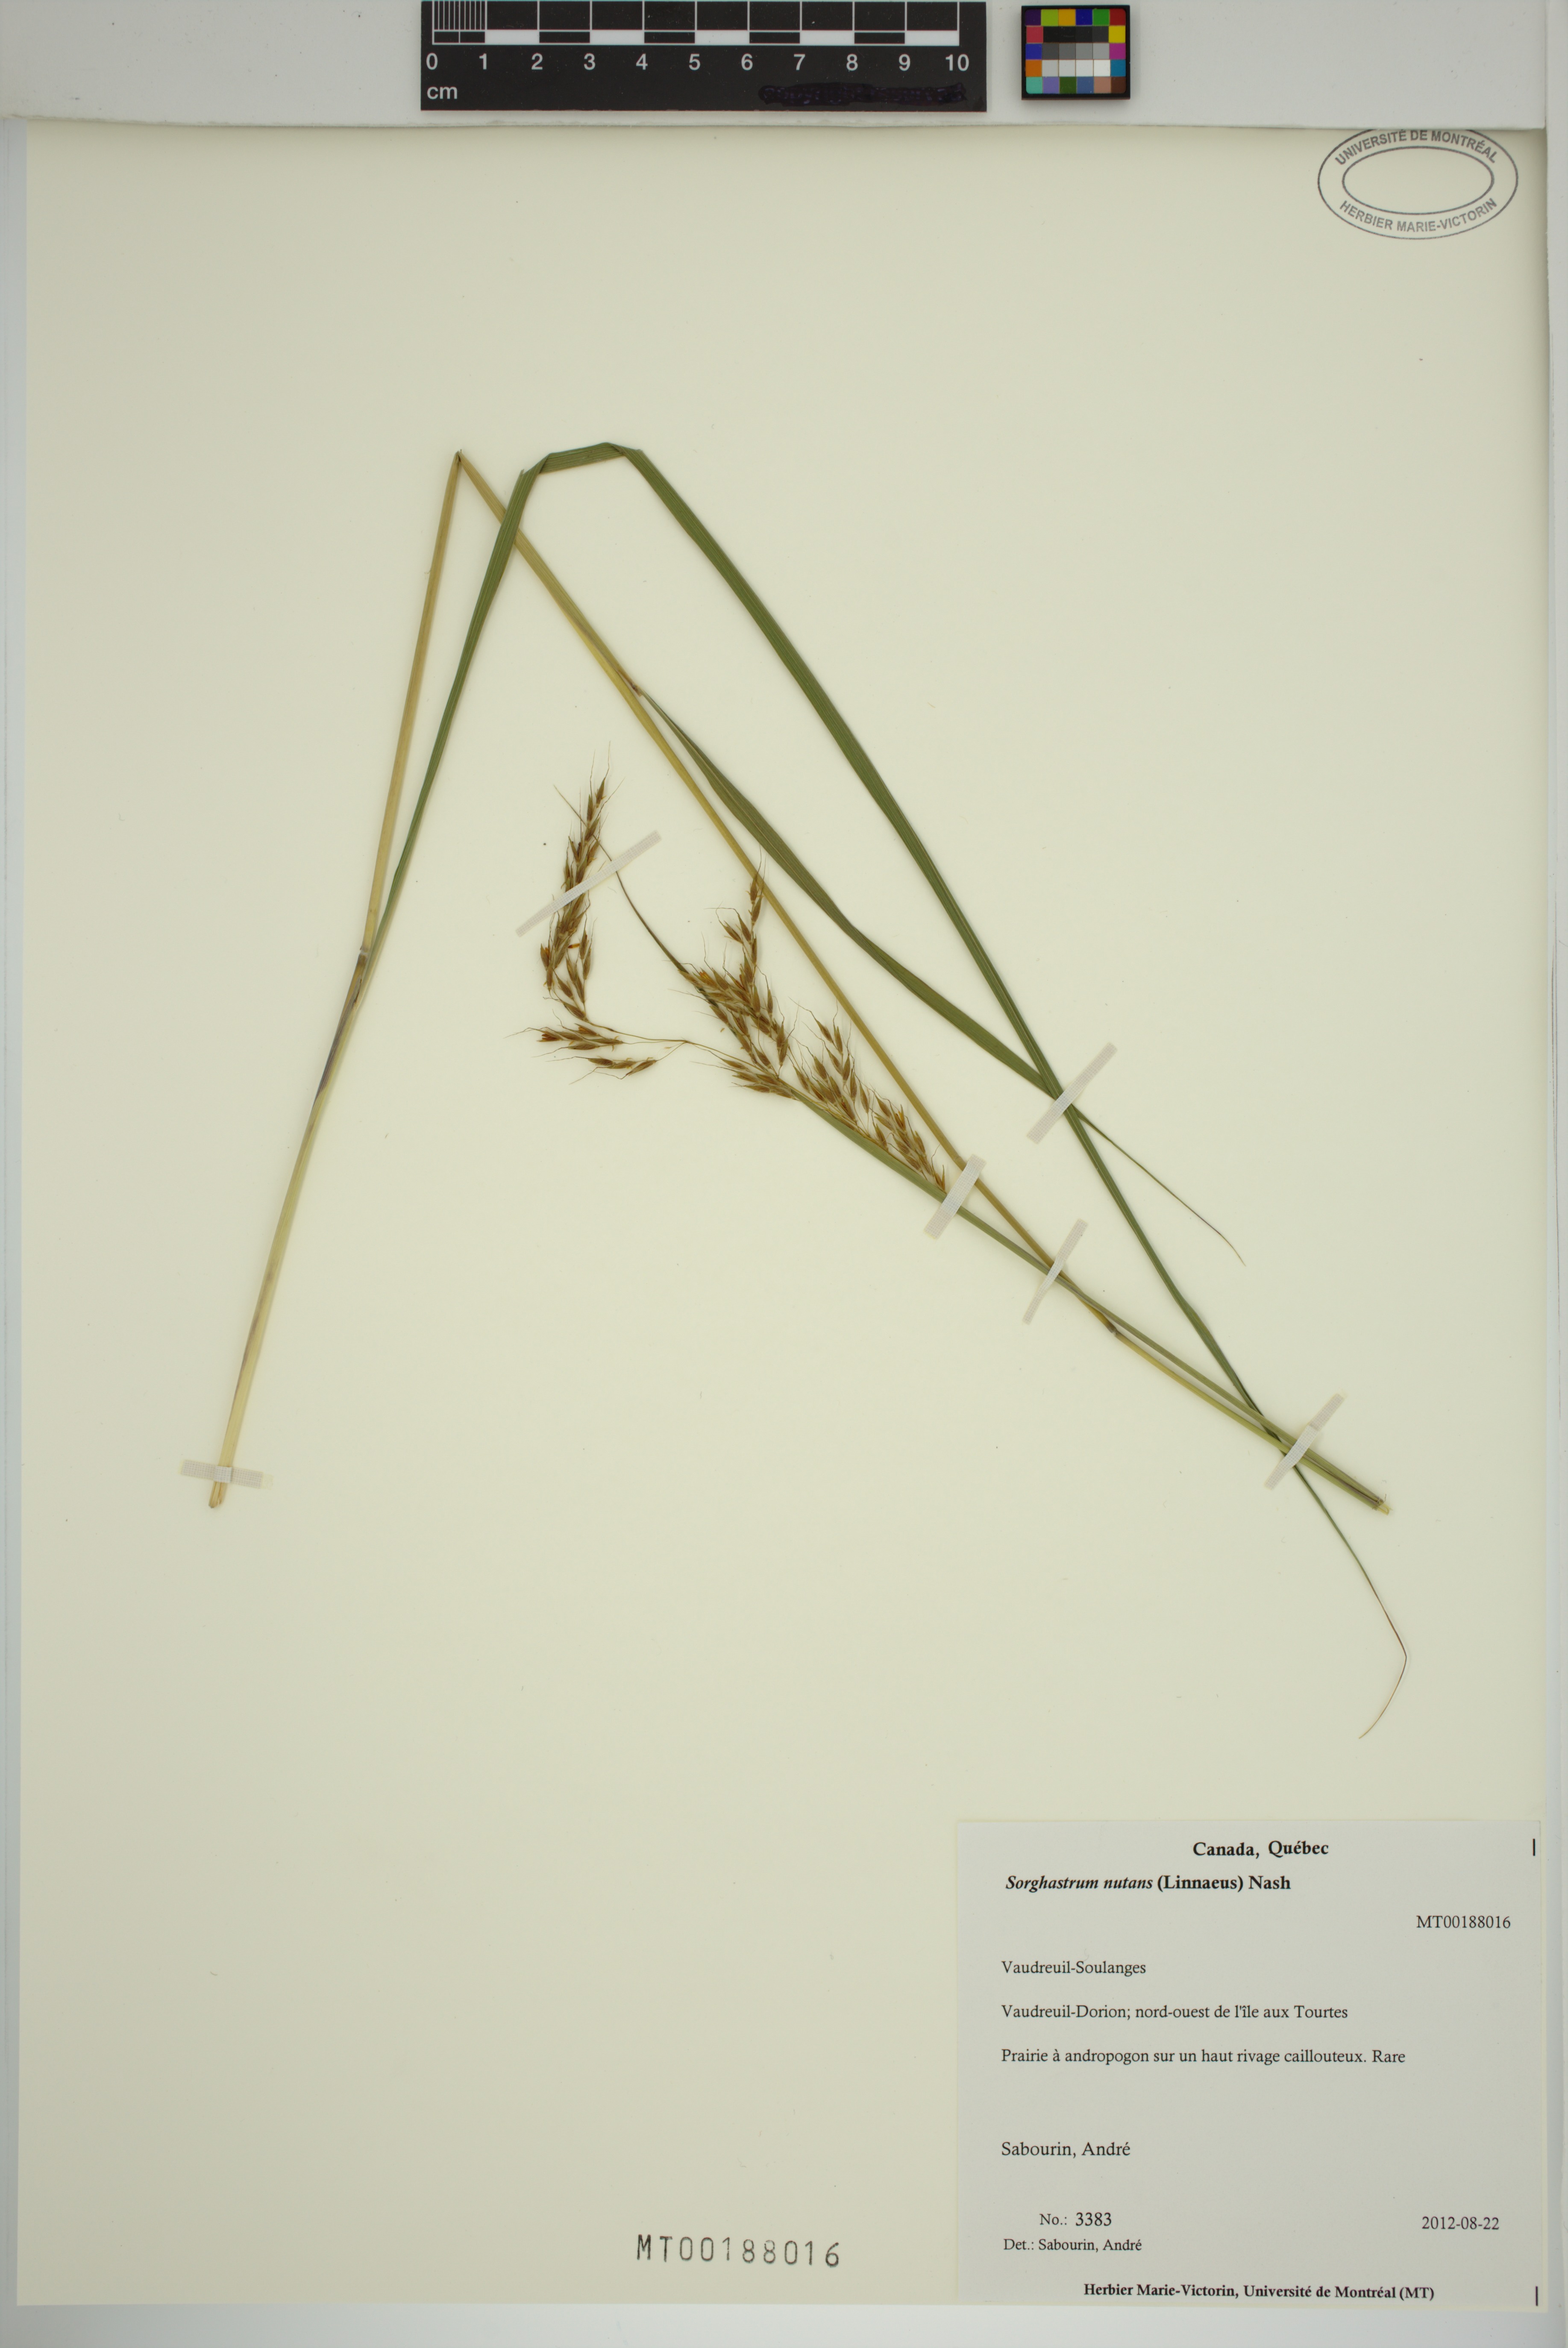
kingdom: Plantae
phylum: Tracheophyta
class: Liliopsida
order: Poales
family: Poaceae
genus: Sorghastrum
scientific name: Sorghastrum nutans
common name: Indian grass
